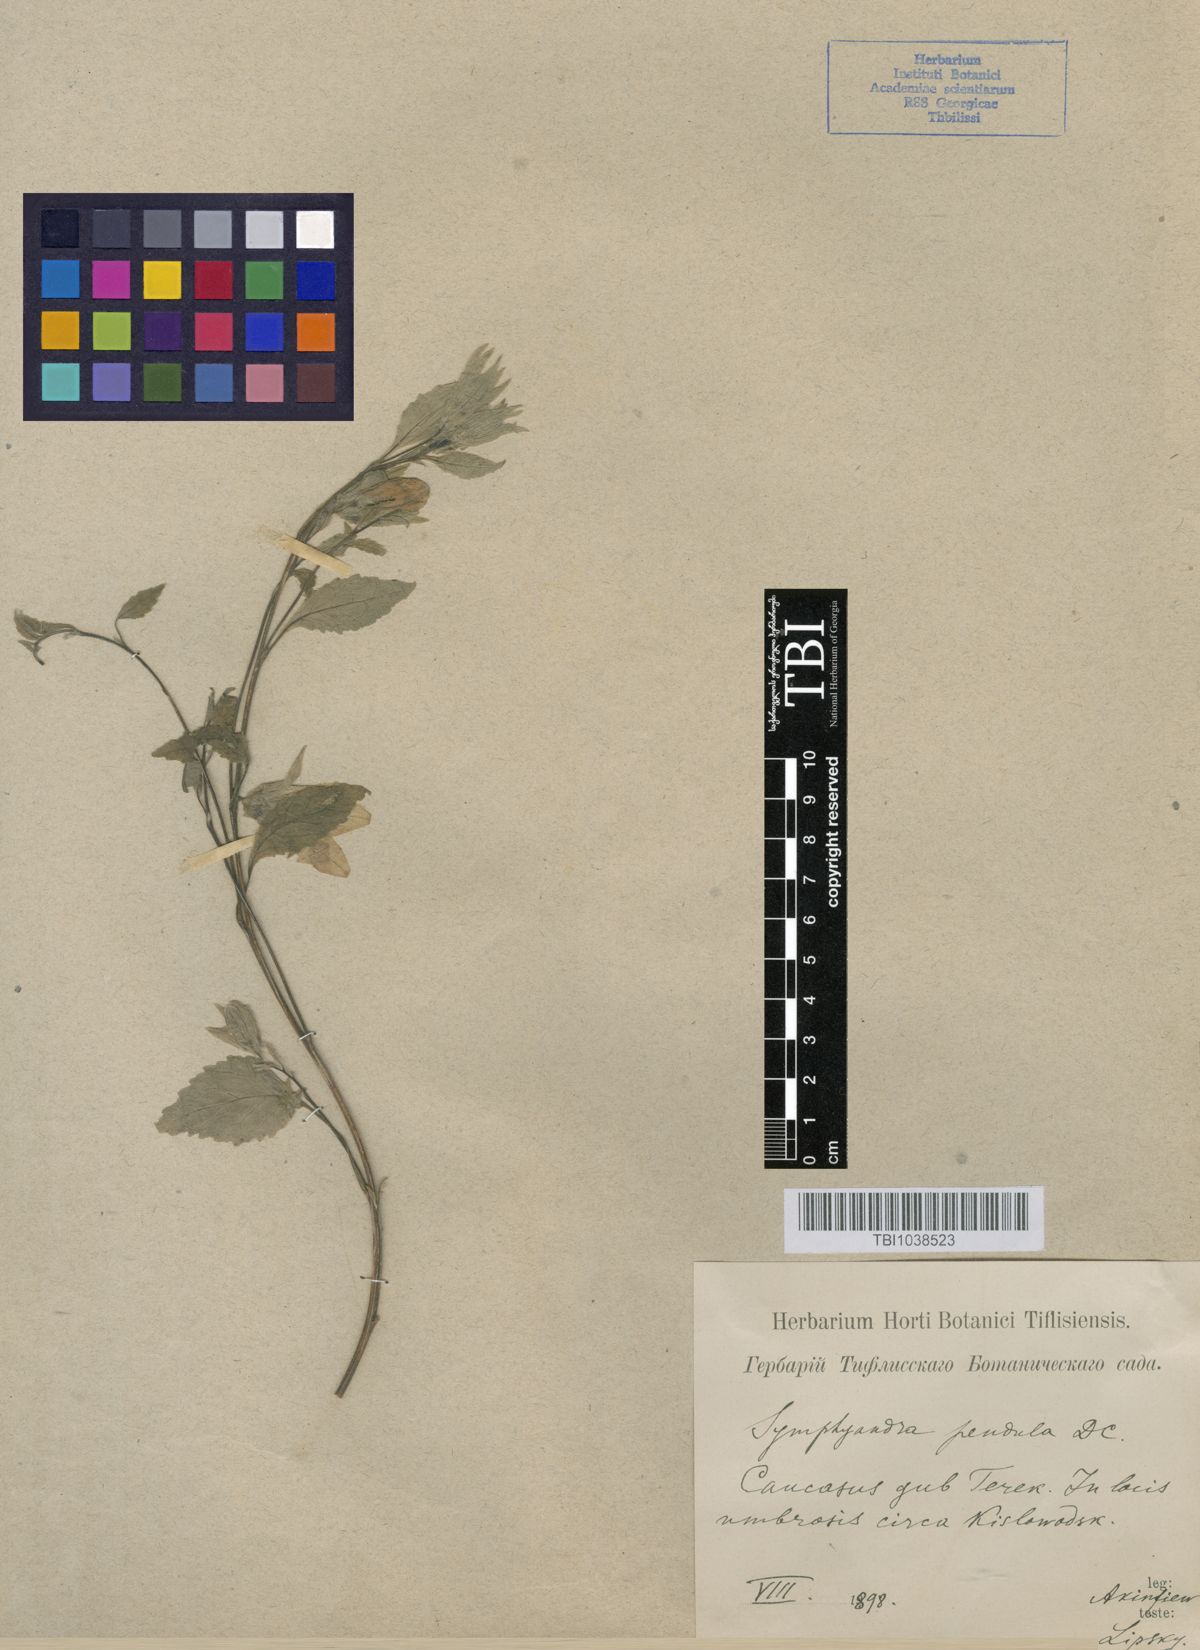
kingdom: Plantae
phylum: Tracheophyta
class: Magnoliopsida
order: Asterales
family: Campanulaceae
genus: Campanula
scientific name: Campanula pendula
